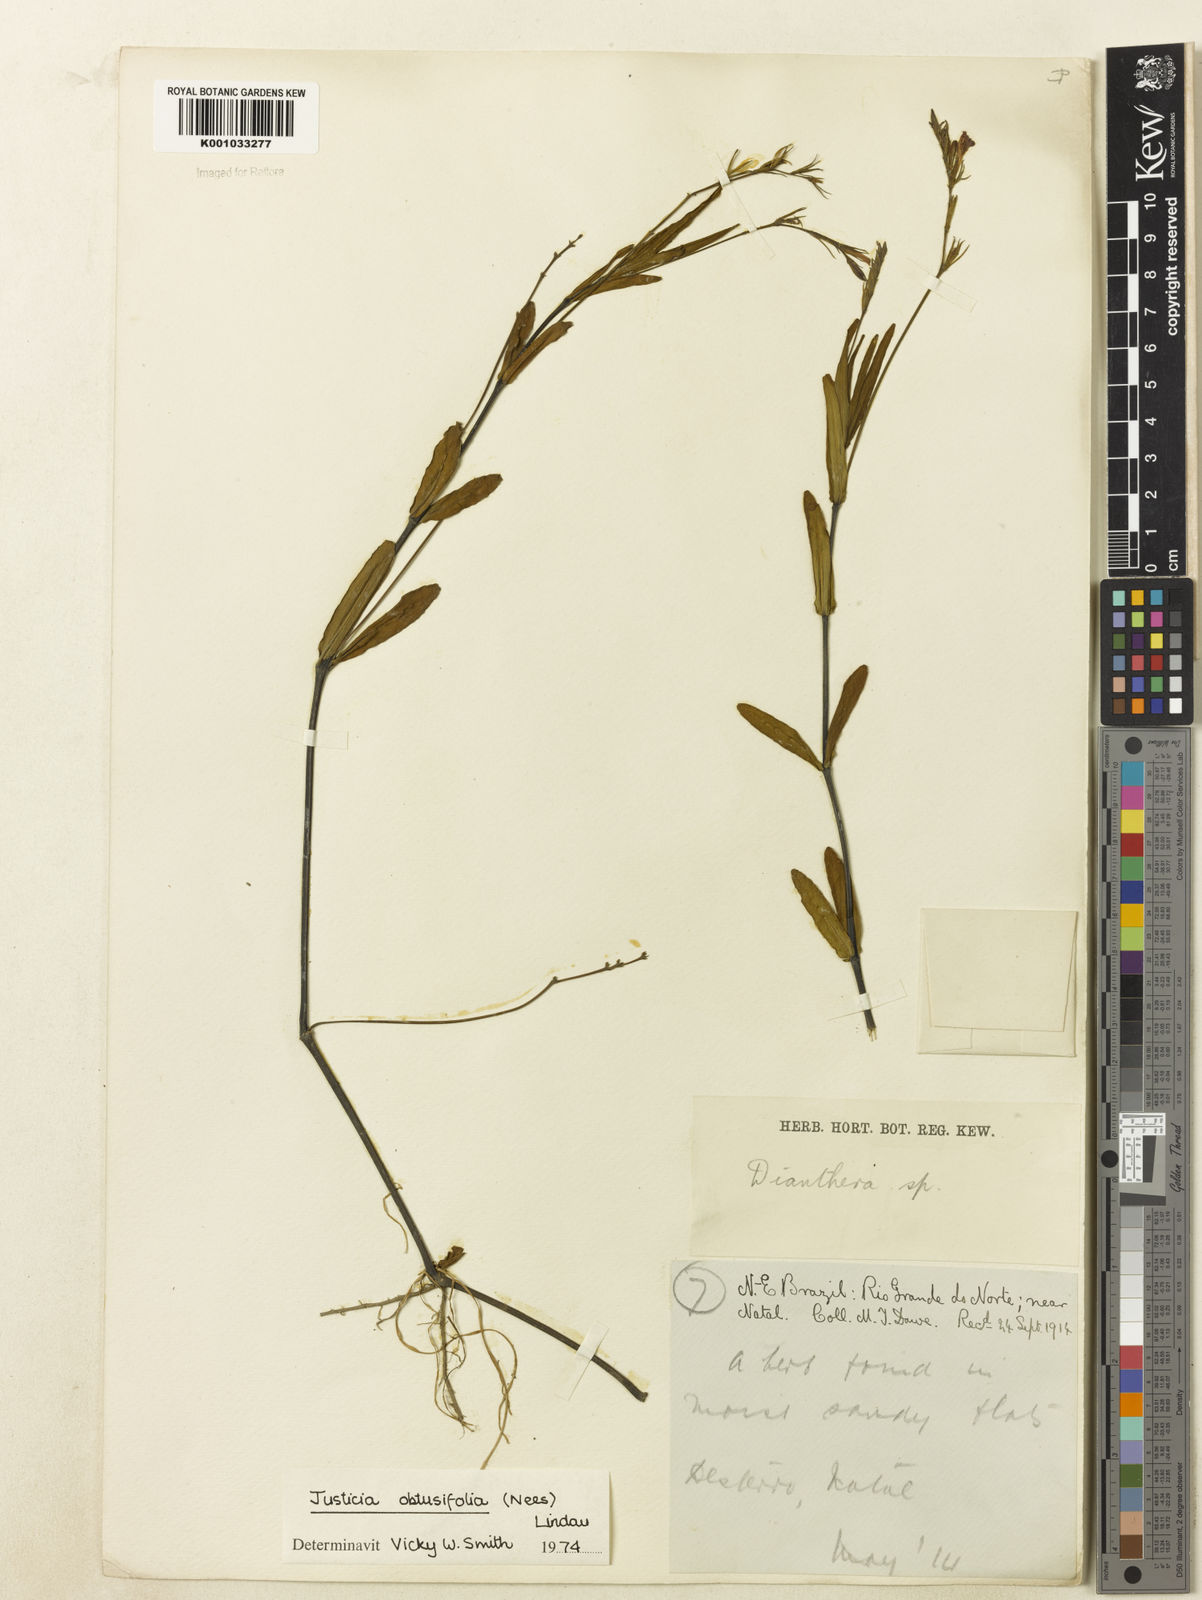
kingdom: Plantae
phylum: Tracheophyta
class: Magnoliopsida
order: Lamiales
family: Acanthaceae
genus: Dianthera
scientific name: Dianthera laevilinguis
